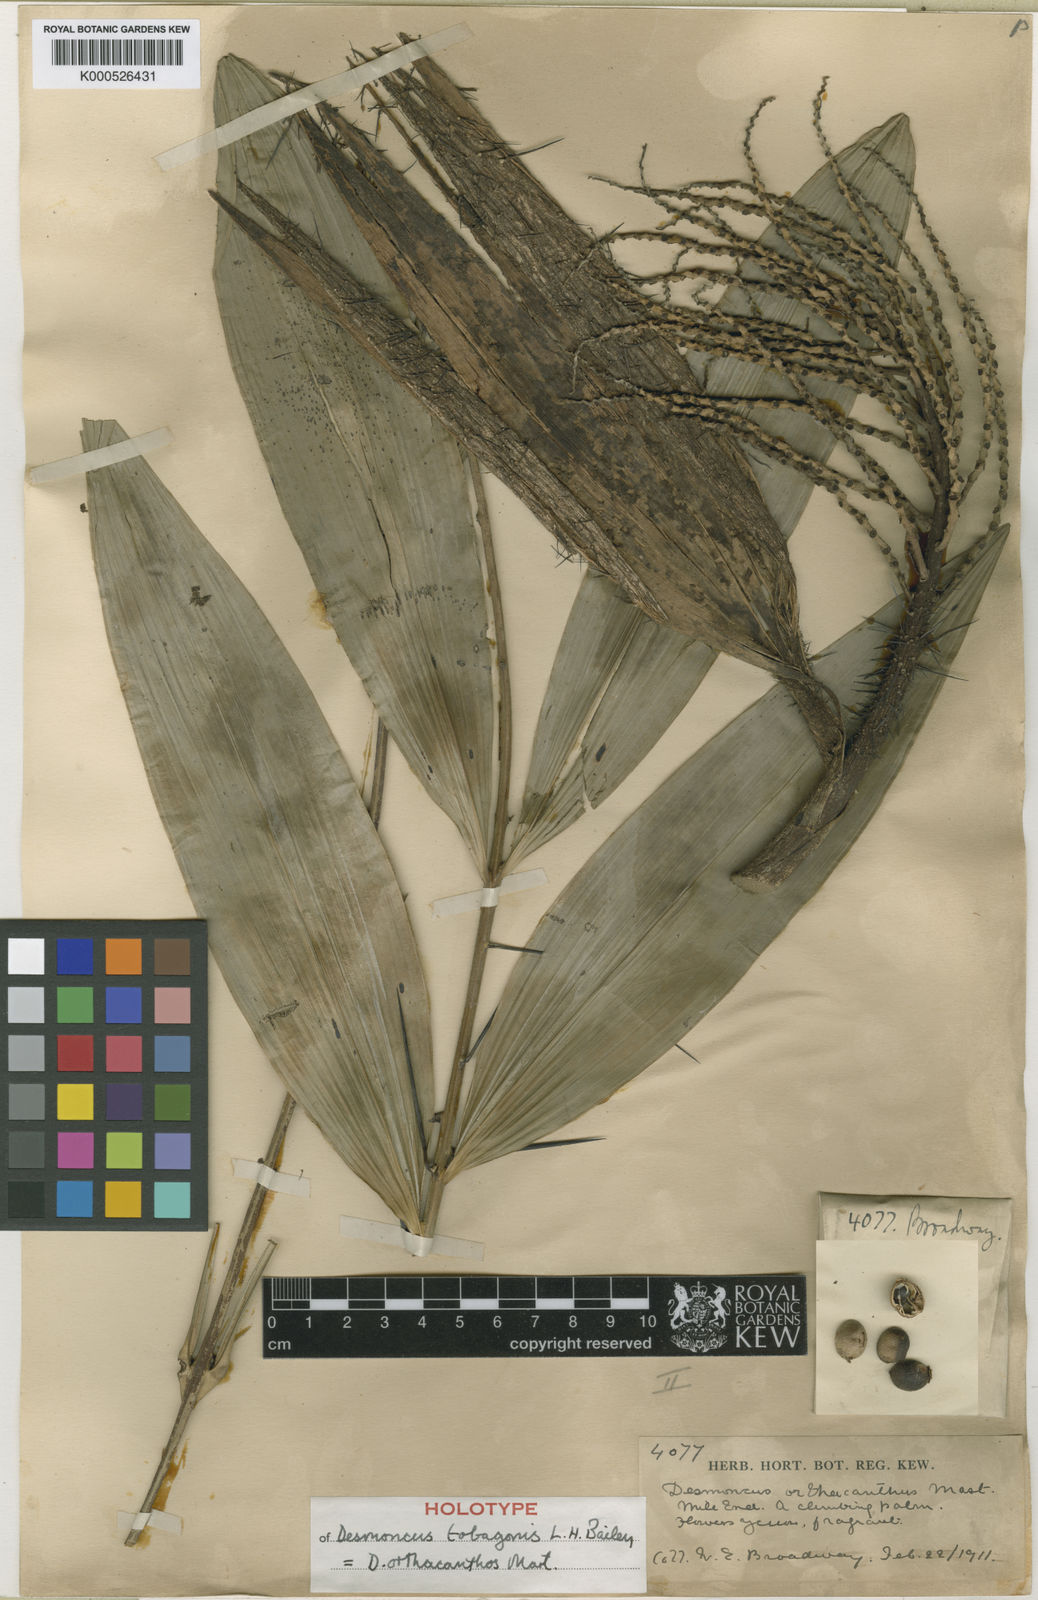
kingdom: Plantae
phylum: Tracheophyta
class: Liliopsida
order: Arecales
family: Arecaceae
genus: Desmoncus
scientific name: Desmoncus orthacanthos
